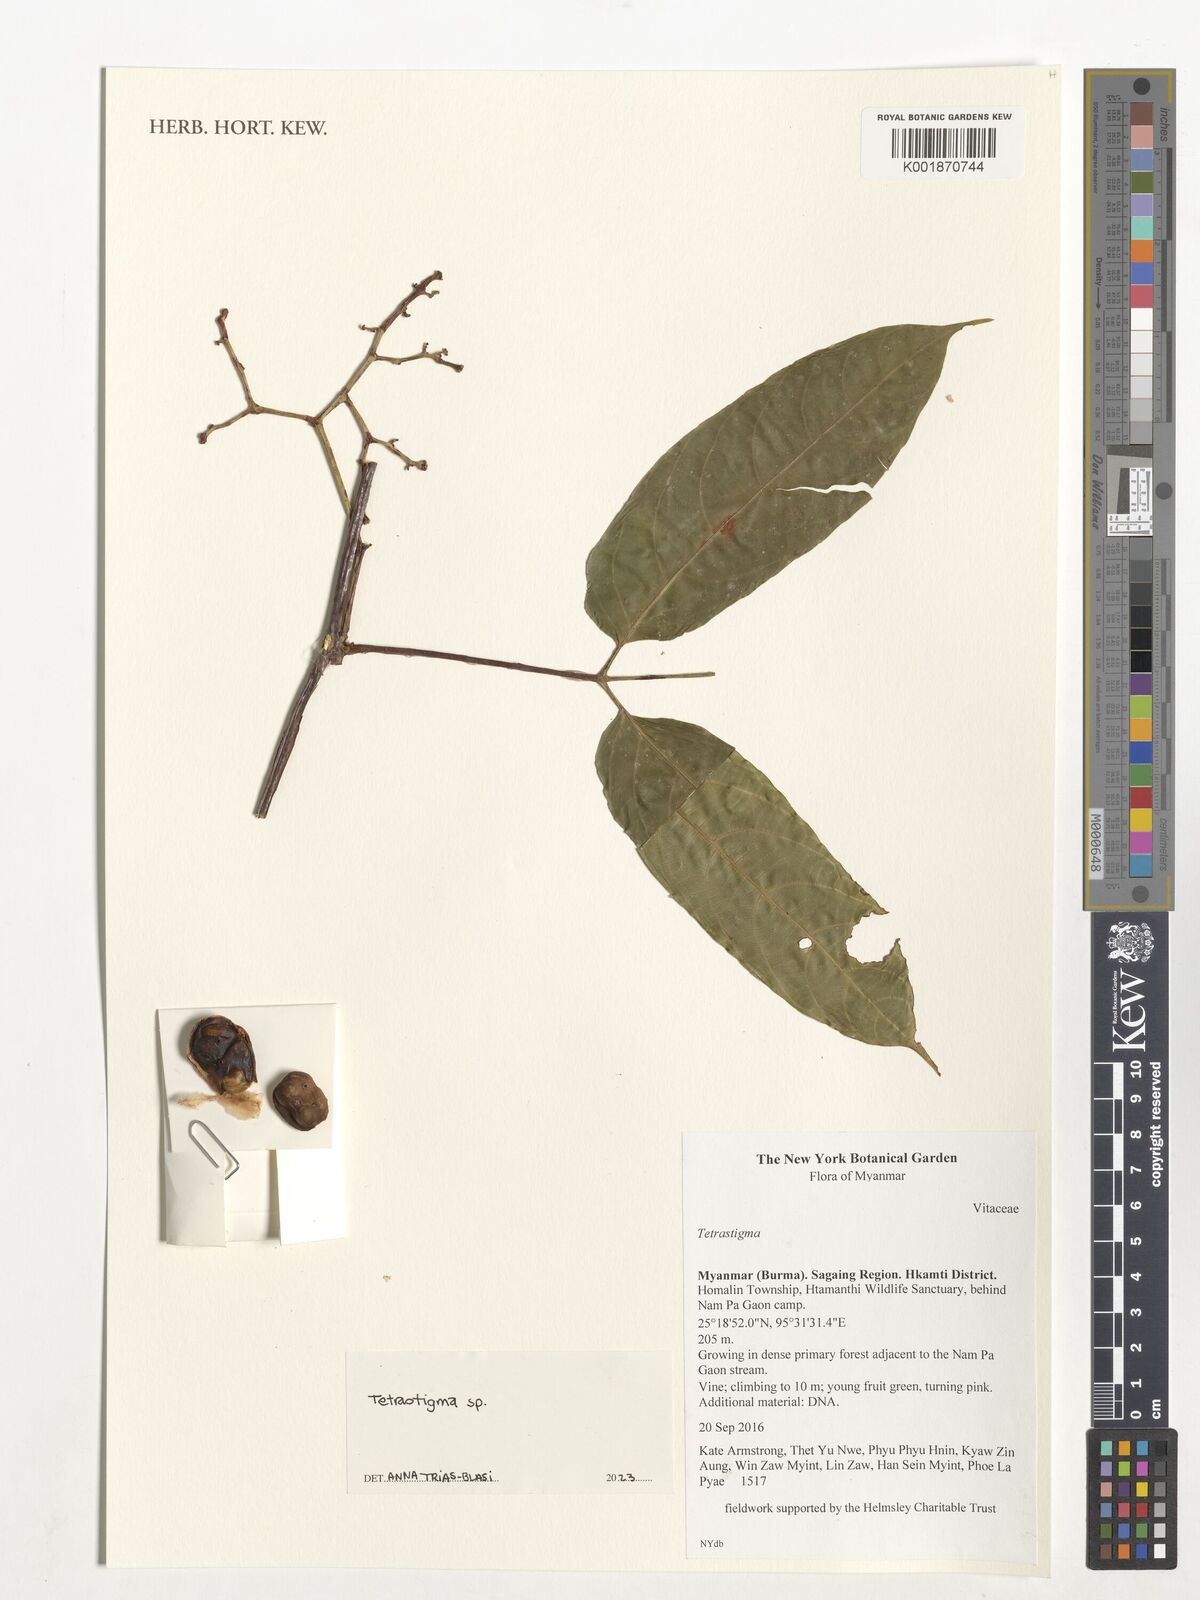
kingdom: Plantae
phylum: Tracheophyta
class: Magnoliopsida
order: Vitales
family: Vitaceae
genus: Tetrastigma
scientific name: Tetrastigma
